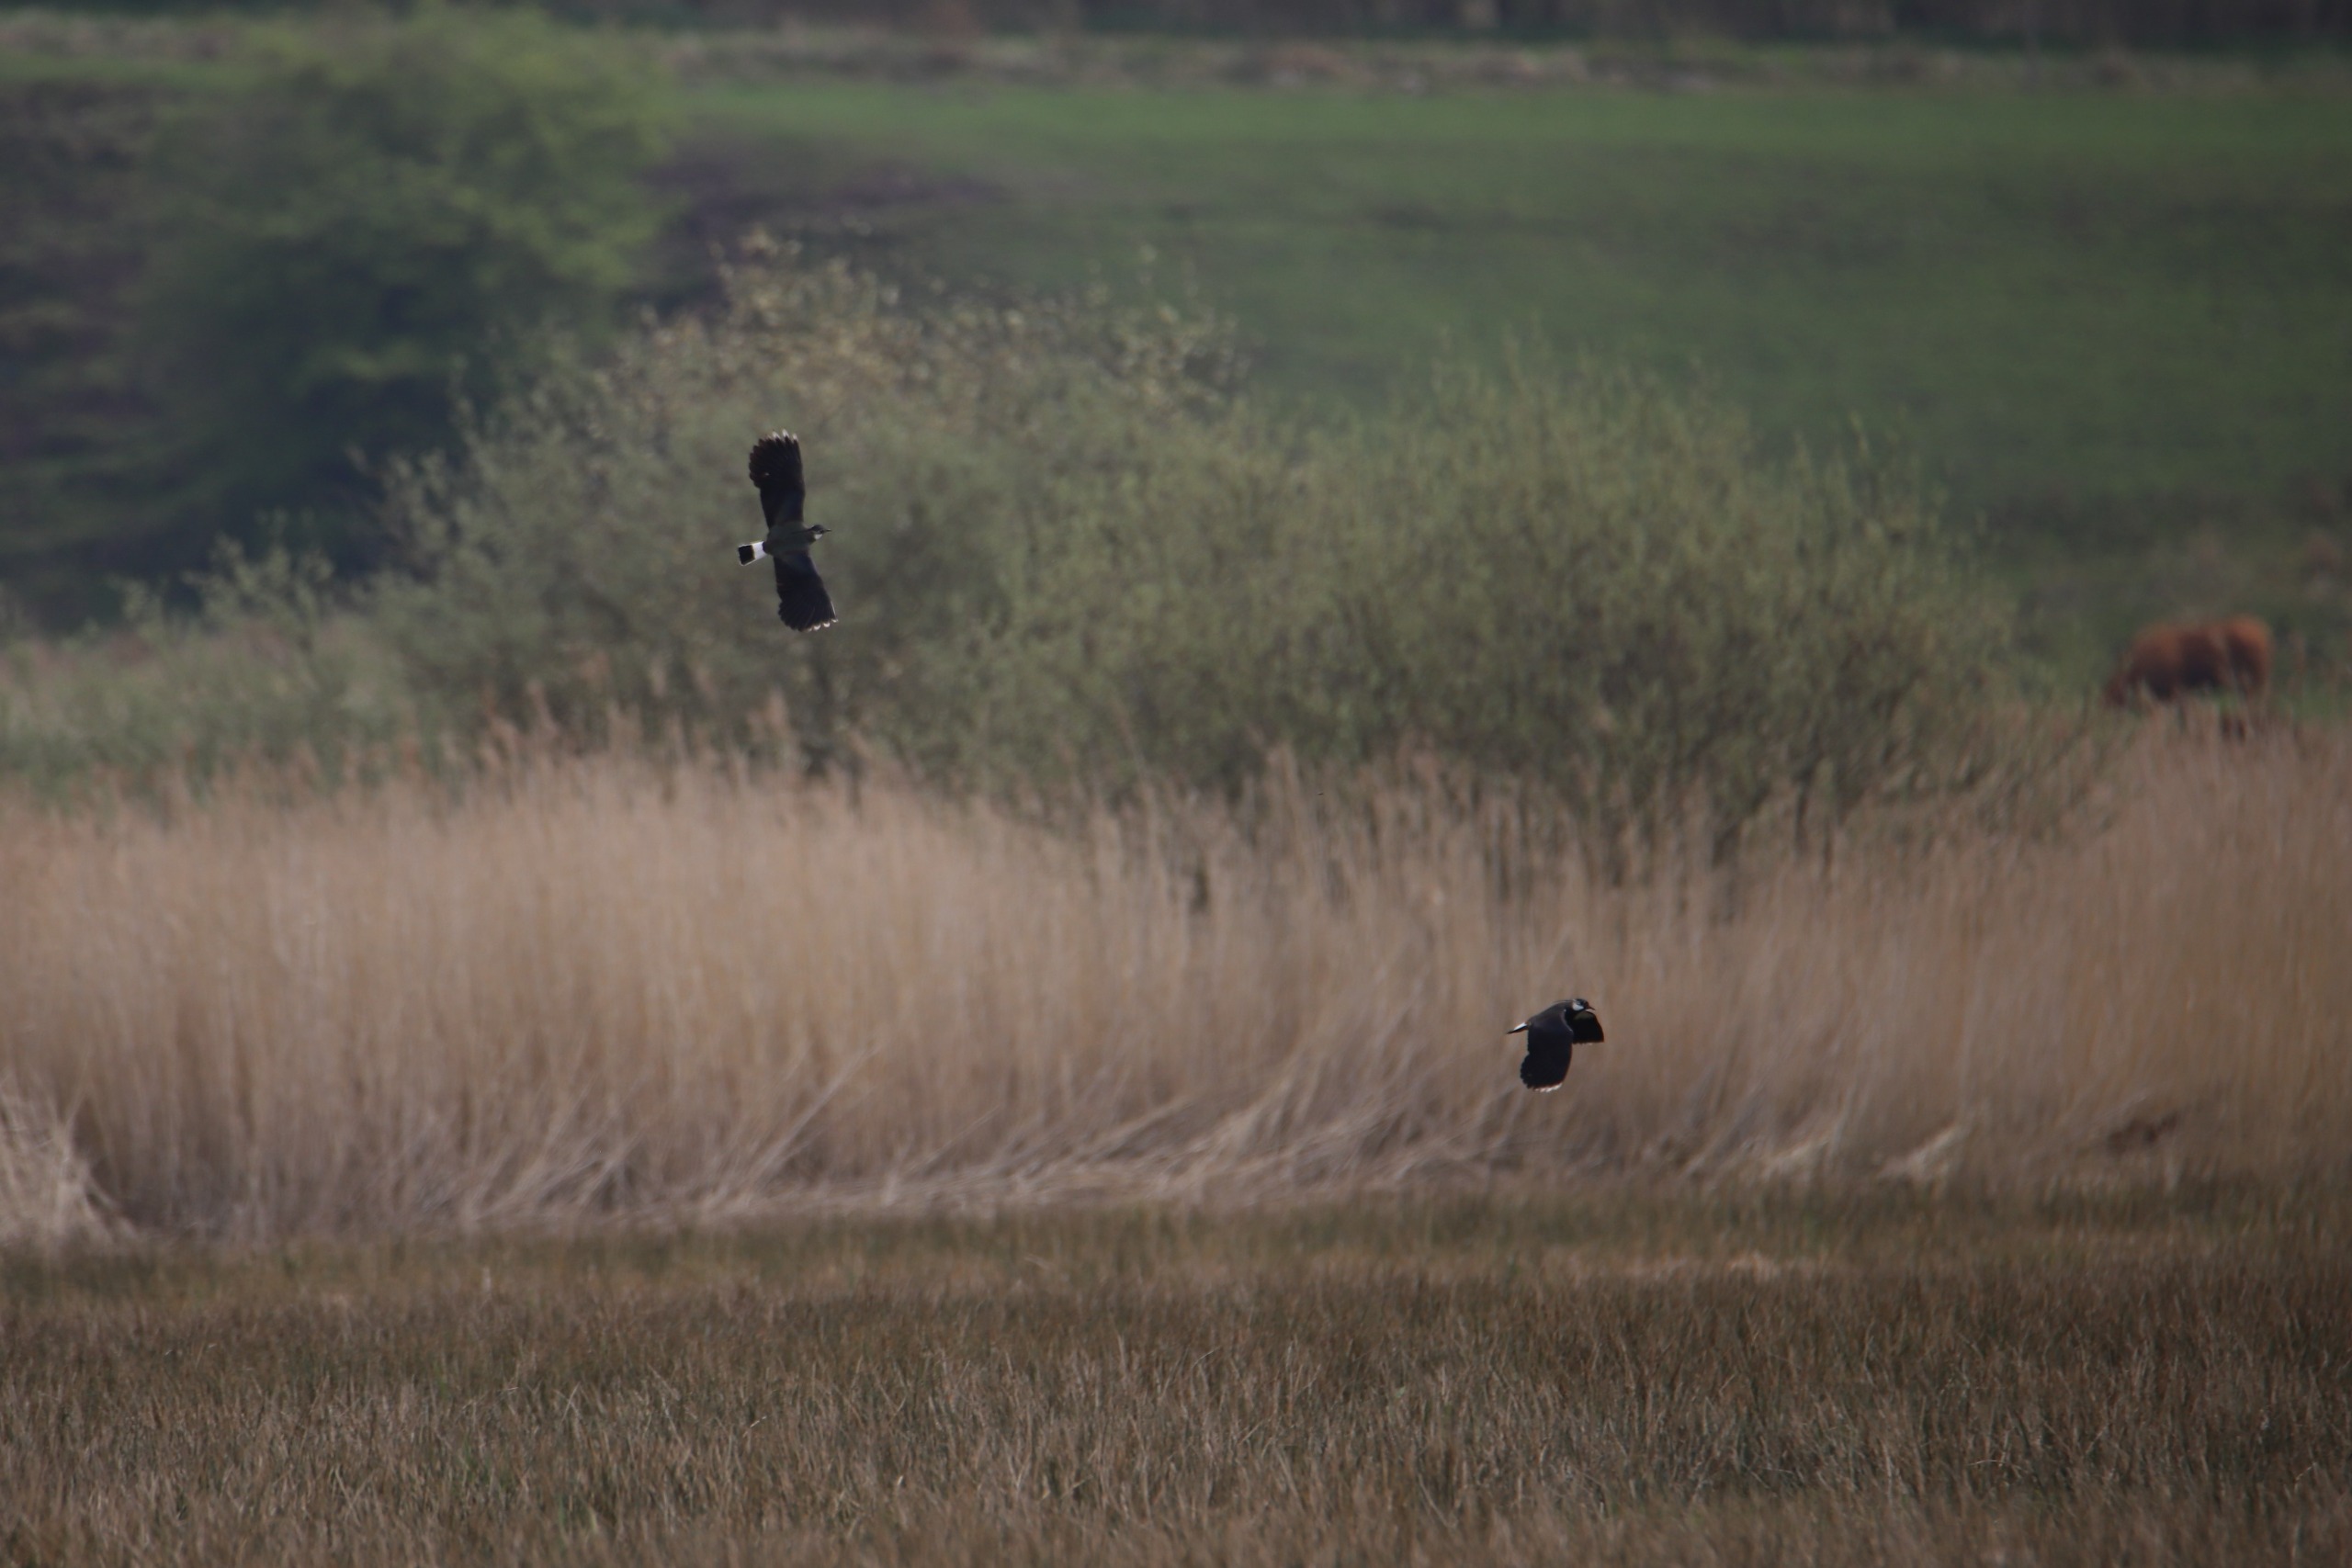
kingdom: Animalia
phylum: Chordata
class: Aves
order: Charadriiformes
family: Charadriidae
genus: Vanellus
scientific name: Vanellus vanellus
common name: Vibe
